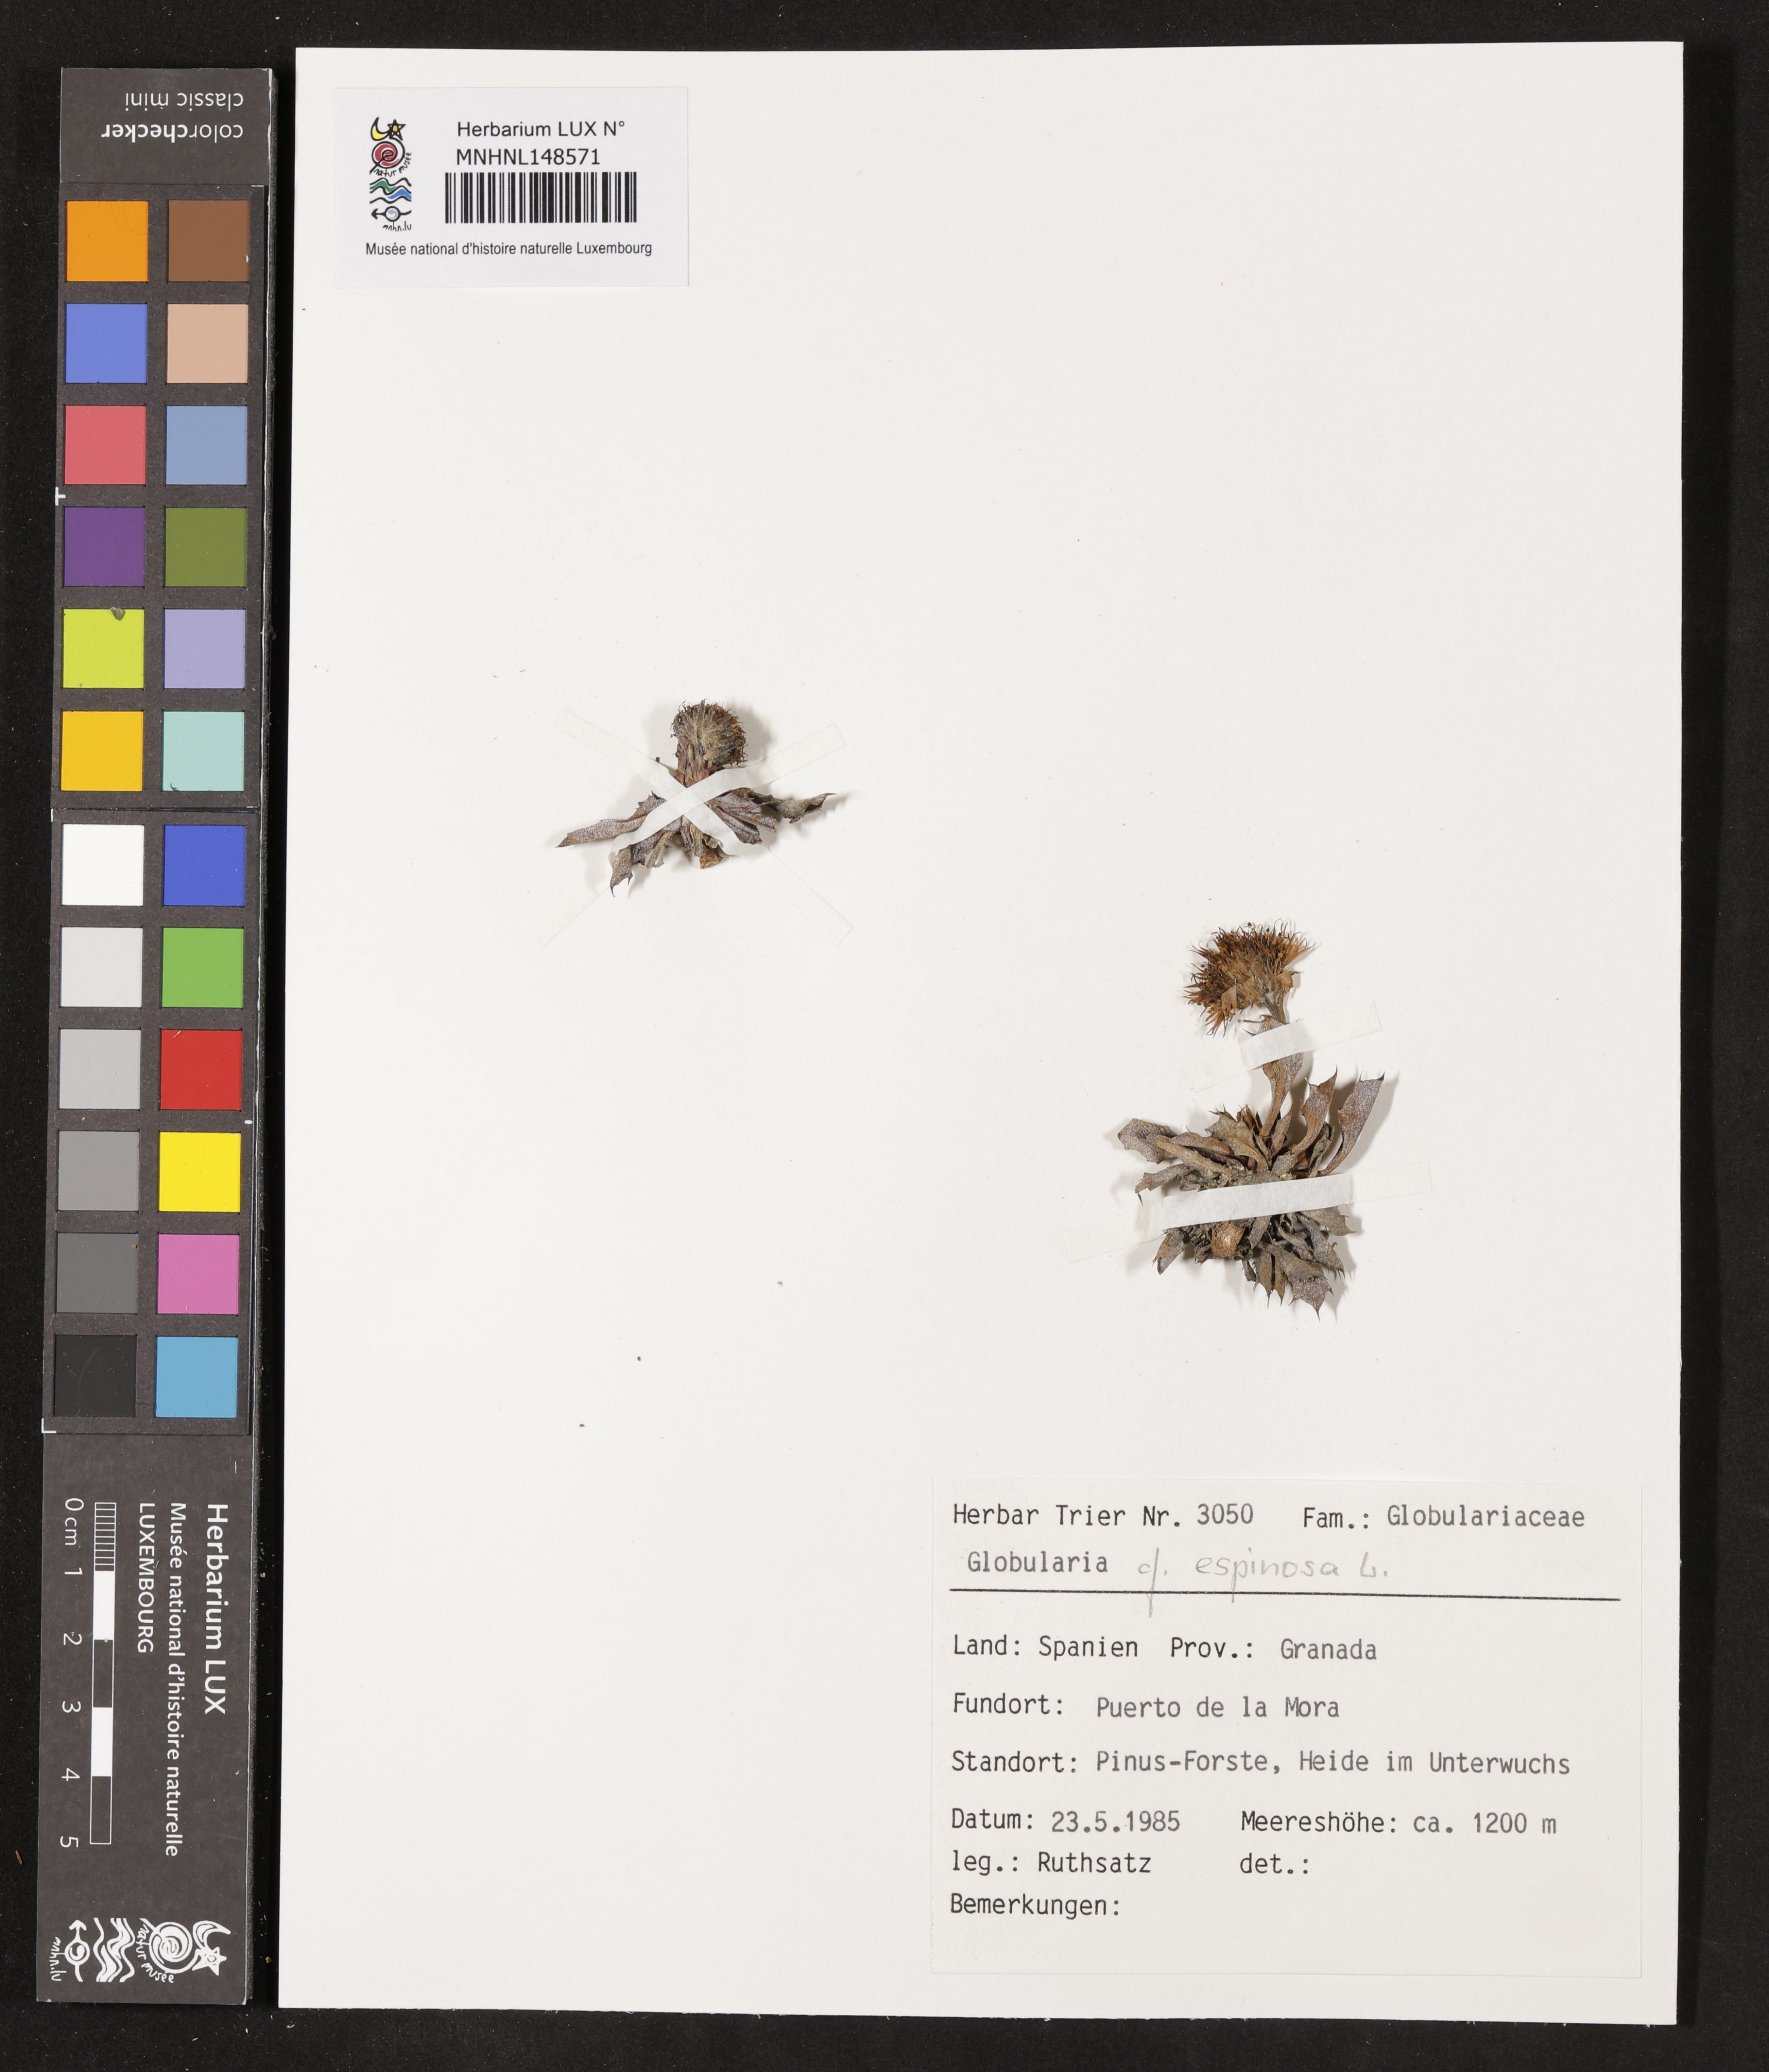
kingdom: Plantae
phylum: Tracheophyta
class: Magnoliopsida
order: Lamiales
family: Plantaginaceae
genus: Globularia
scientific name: Globularia spinosa
